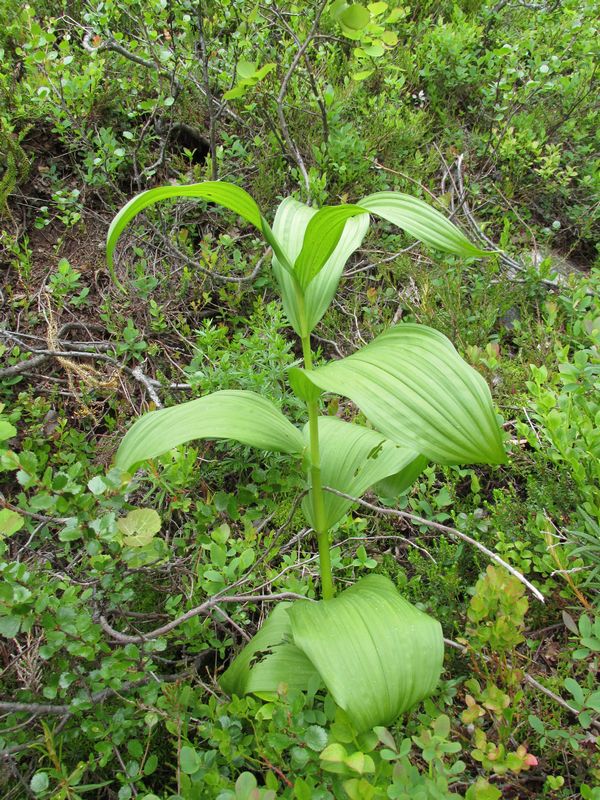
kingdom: Plantae
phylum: Tracheophyta
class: Liliopsida
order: Liliales
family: Liliaceae
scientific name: Liliaceae
